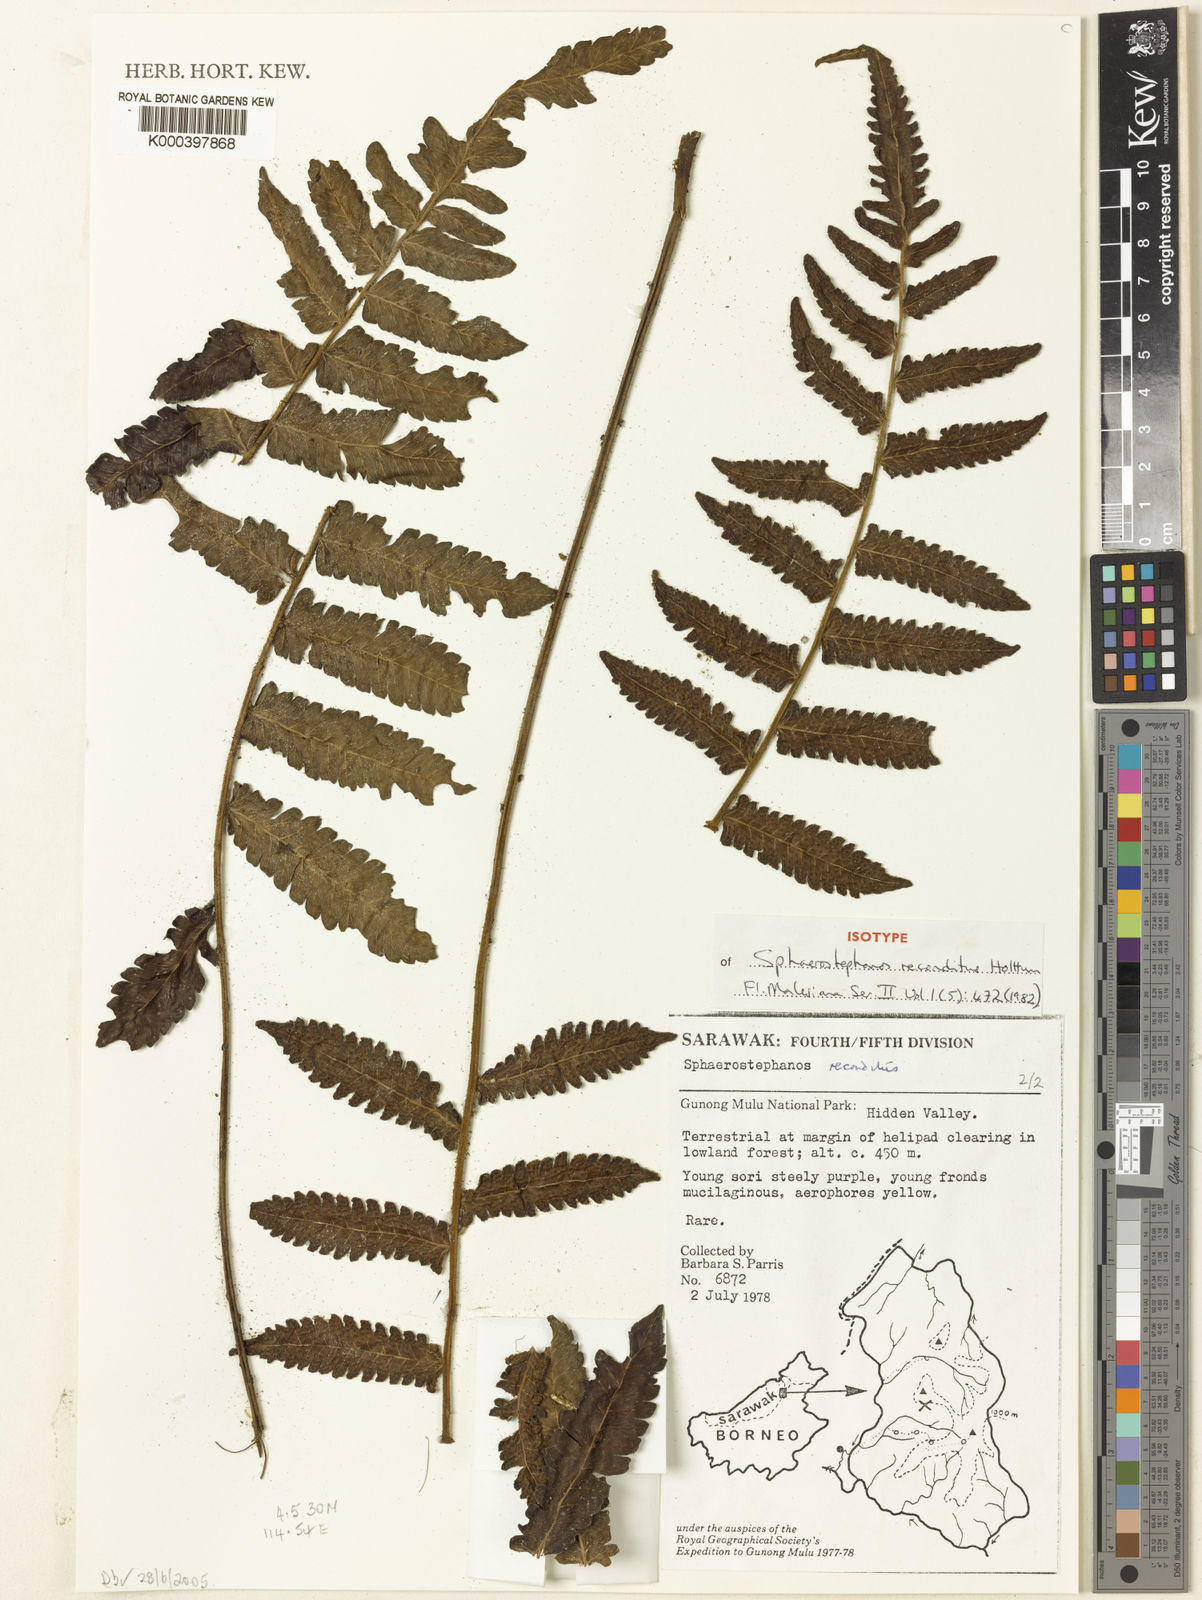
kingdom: Plantae
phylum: Tracheophyta
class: Polypodiopsida
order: Polypodiales
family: Thelypteridaceae
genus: Sphaerostephanos
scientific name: Sphaerostephanos reconditus
